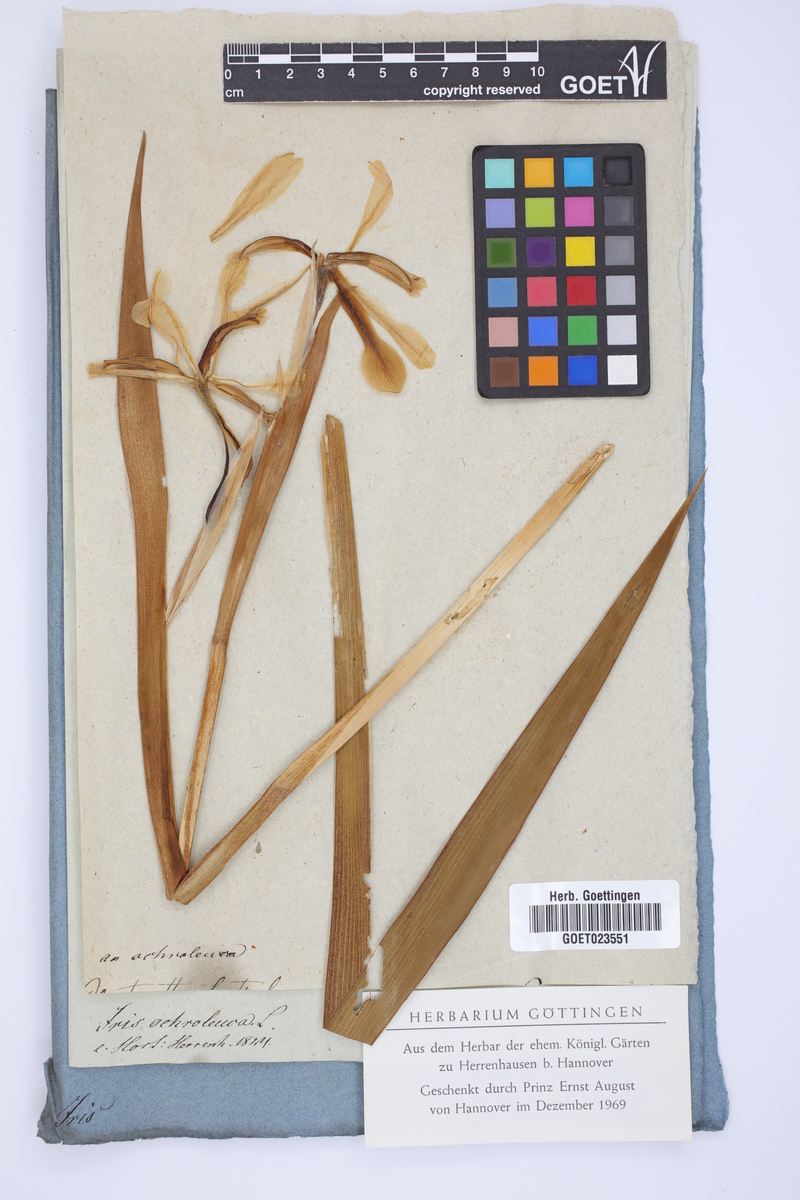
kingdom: Plantae
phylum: Tracheophyta
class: Liliopsida
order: Asparagales
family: Iridaceae
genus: Iris
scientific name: Iris orientalis
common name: Turkish iris
